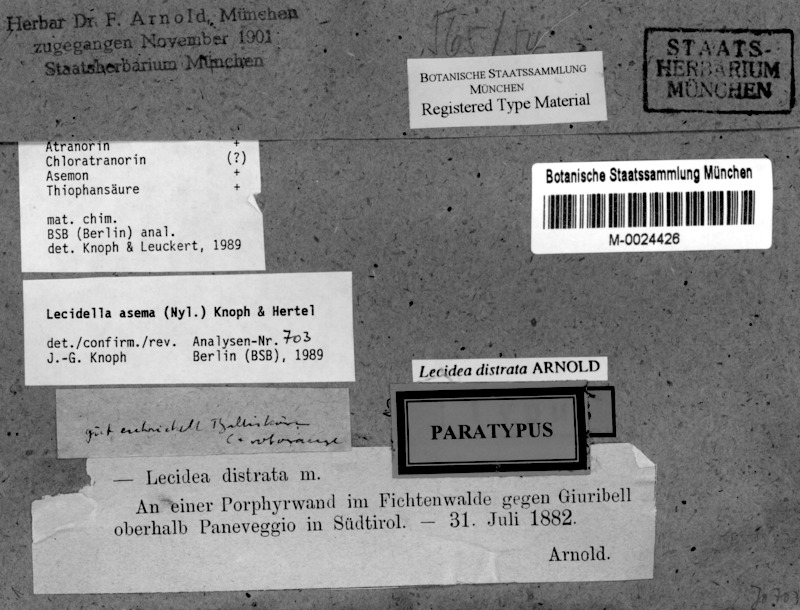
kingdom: Fungi
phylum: Ascomycota
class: Lecanoromycetes
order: Lecanorales
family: Lecanoraceae
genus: Lecidella
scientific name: Lecidella asema
